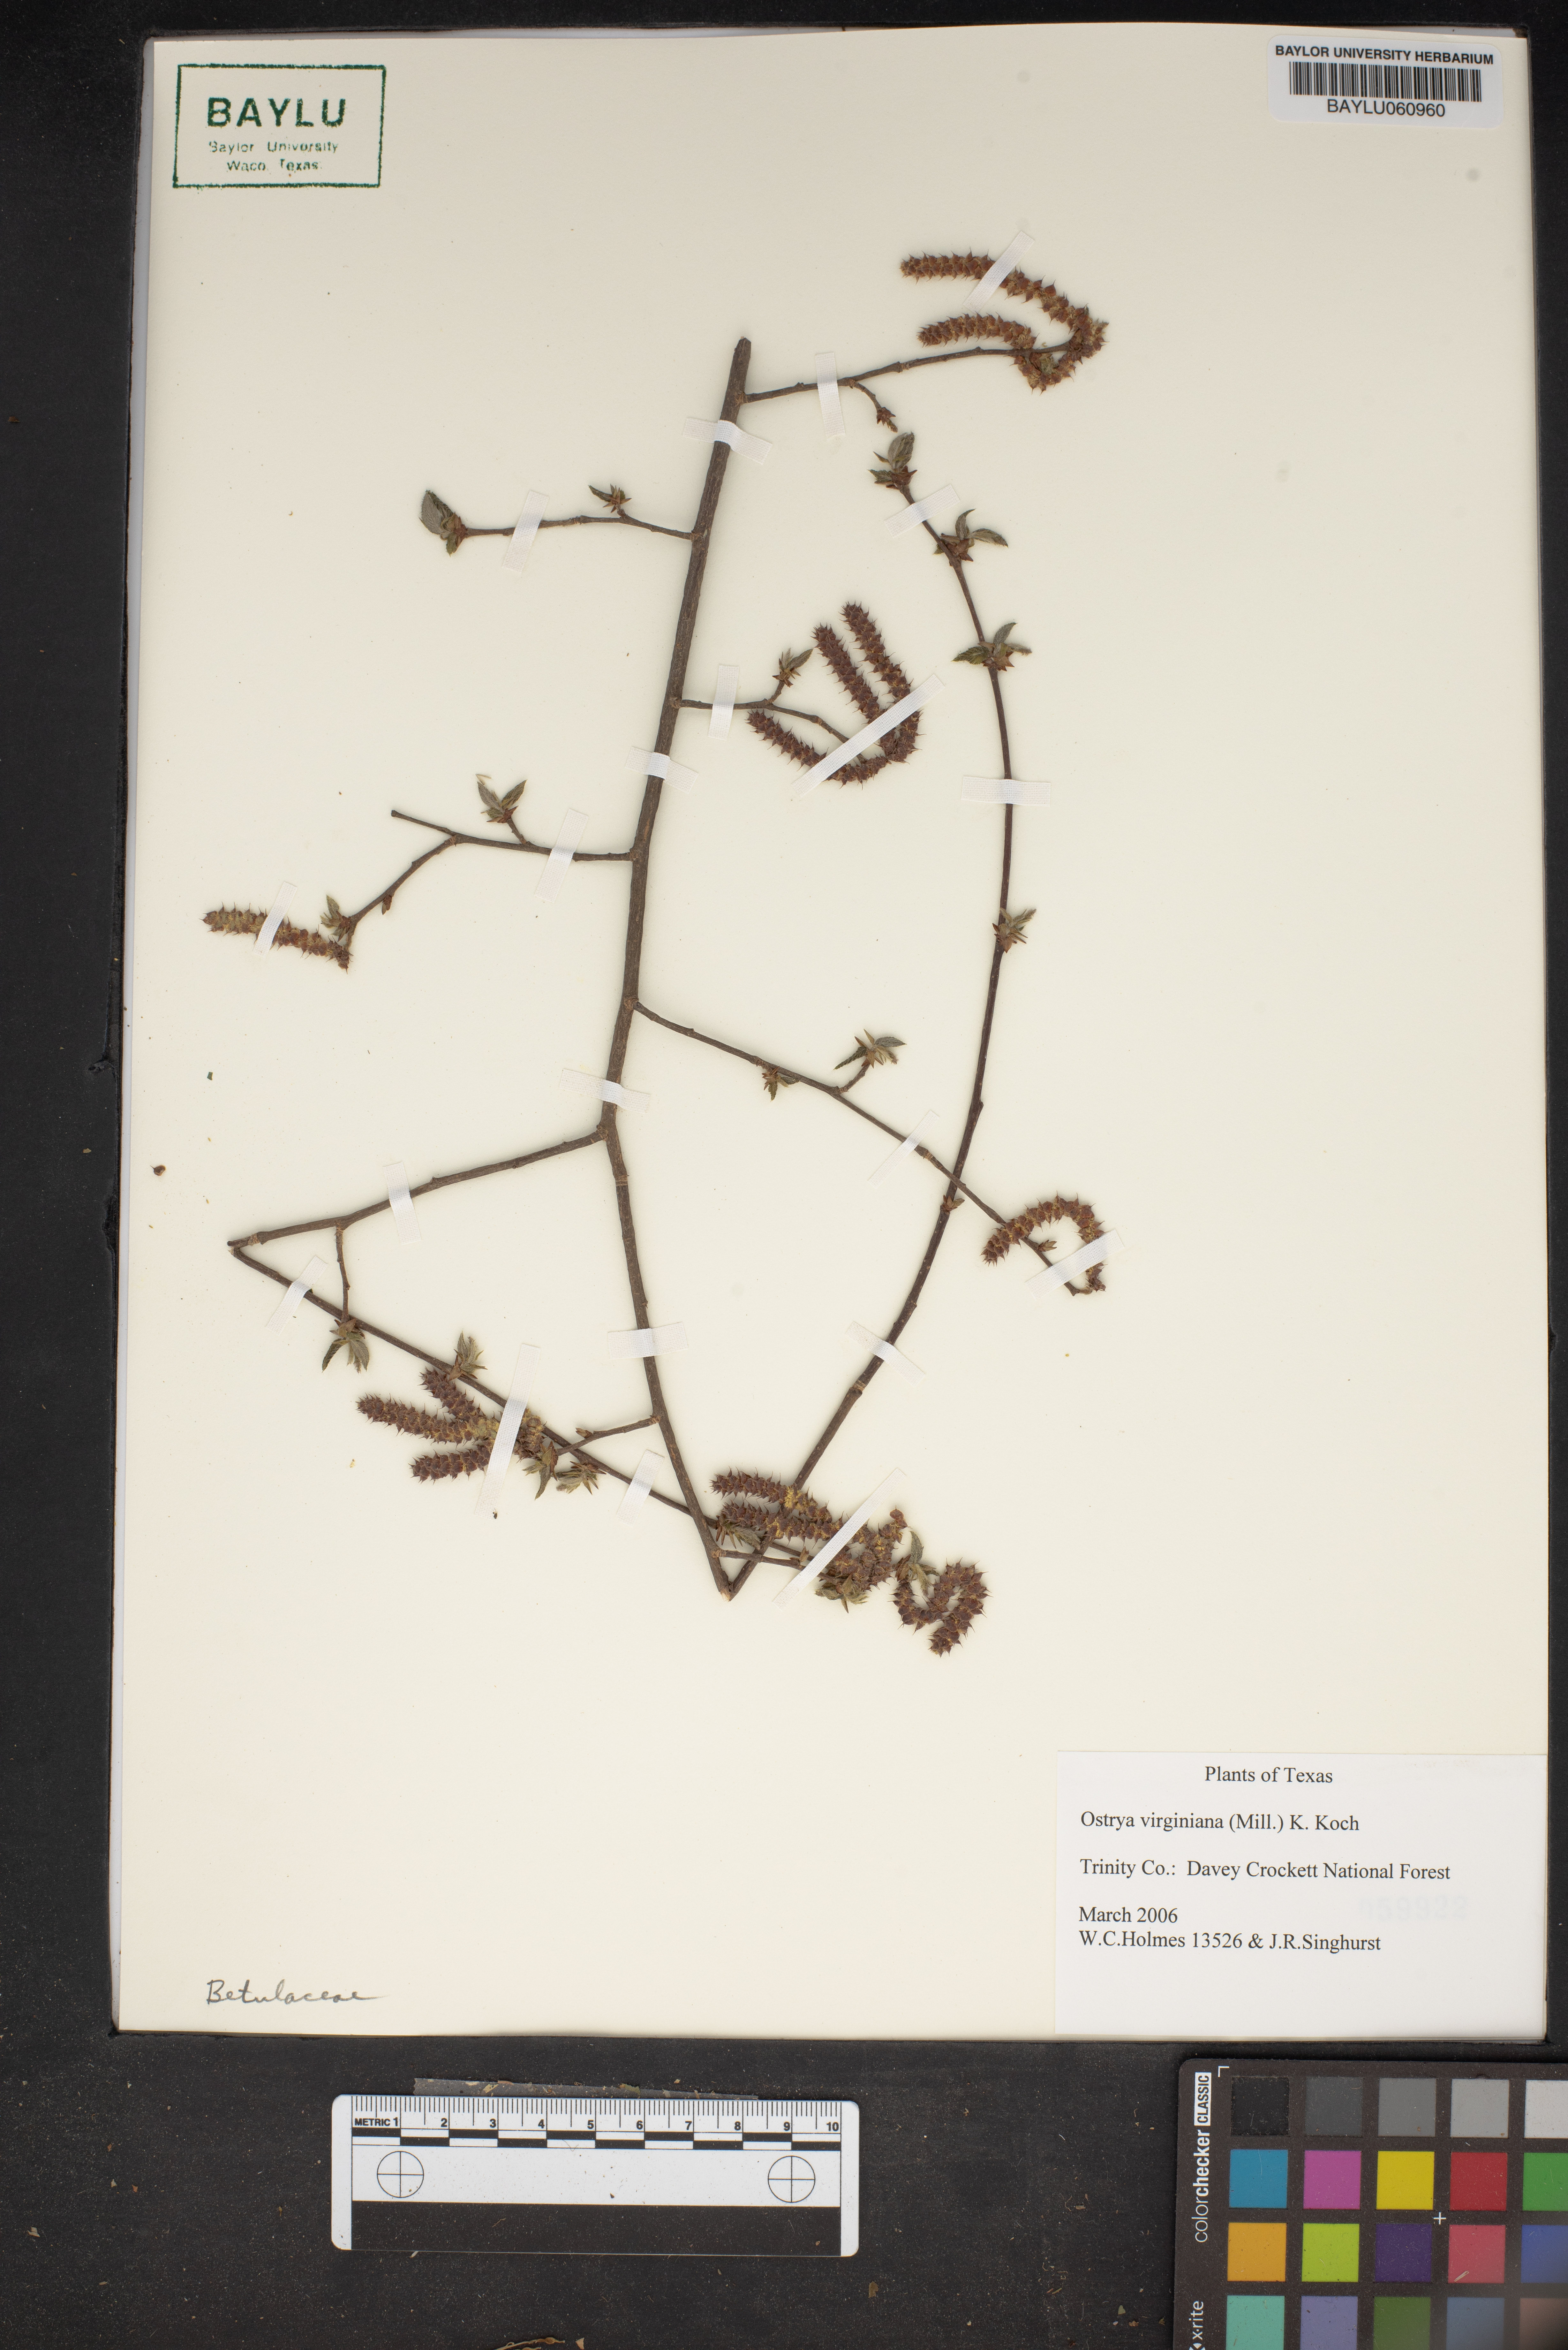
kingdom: Plantae
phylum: Tracheophyta
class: Magnoliopsida
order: Fagales
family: Betulaceae
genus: Ostrya
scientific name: Ostrya virginiana
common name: Ironwood
